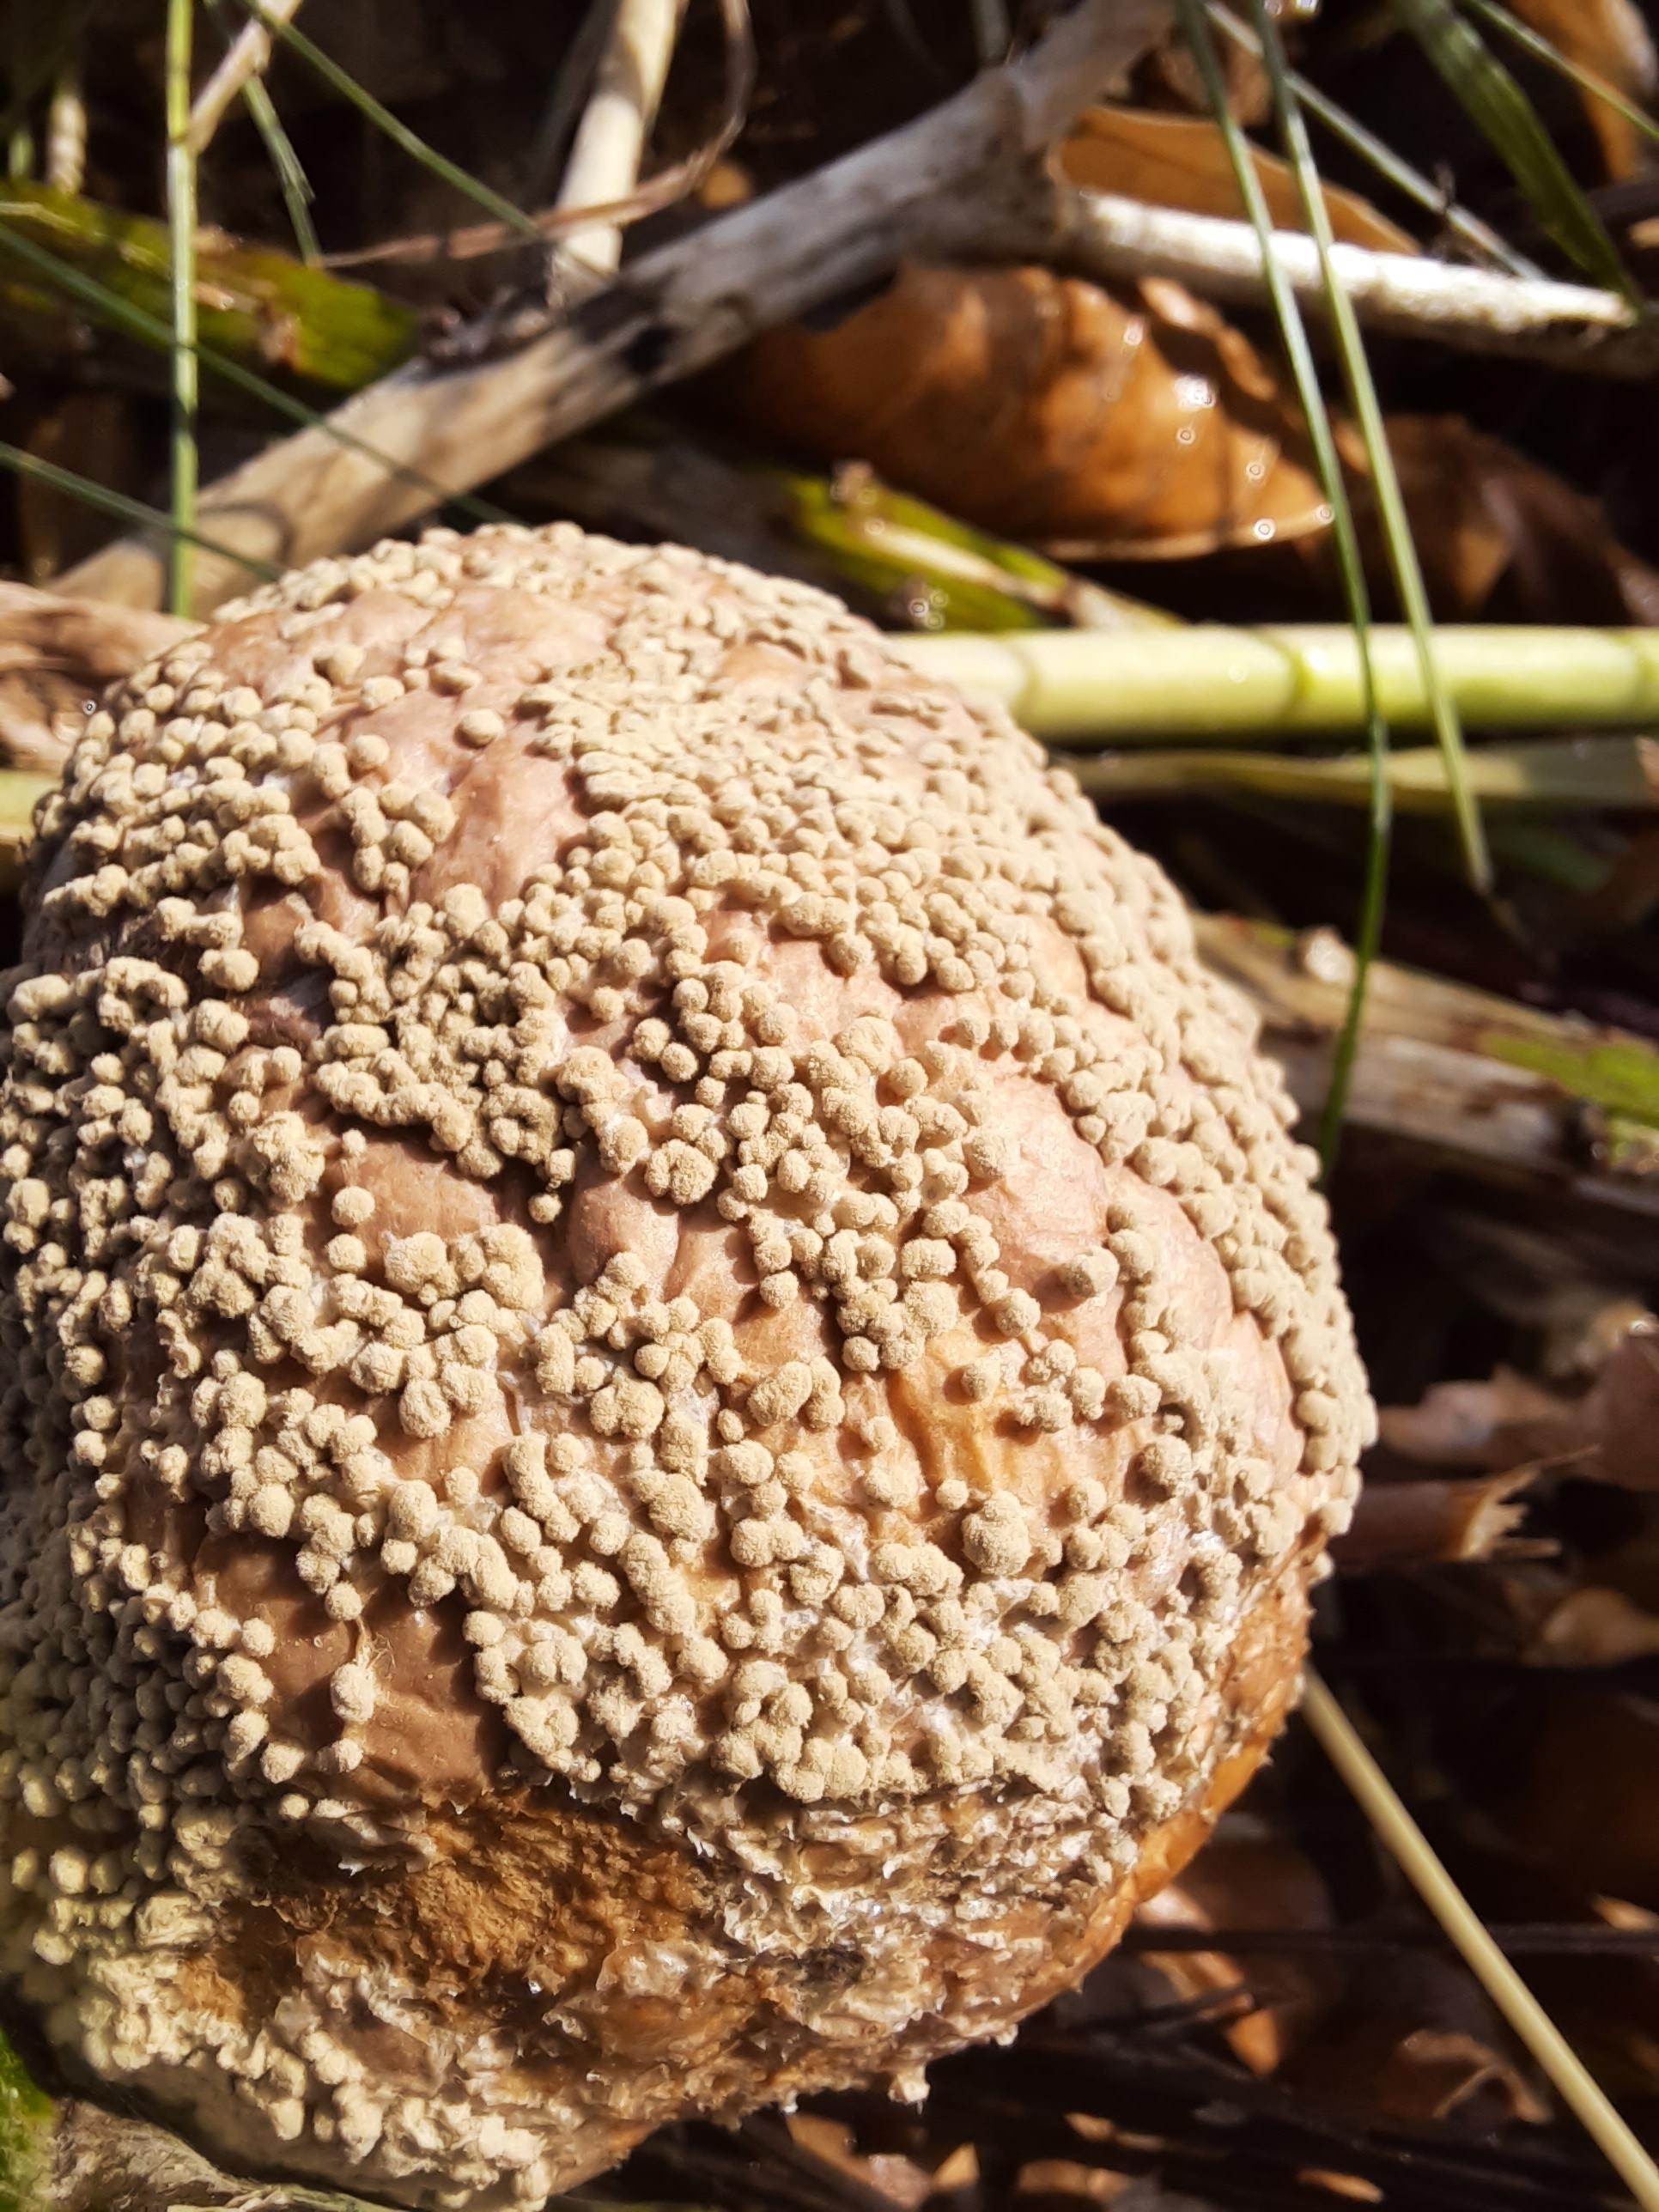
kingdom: Fungi
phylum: Ascomycota
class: Leotiomycetes
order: Helotiales
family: Sclerotiniaceae
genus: Monilinia
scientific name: Monilinia fructigena
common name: æble-knoldskive
